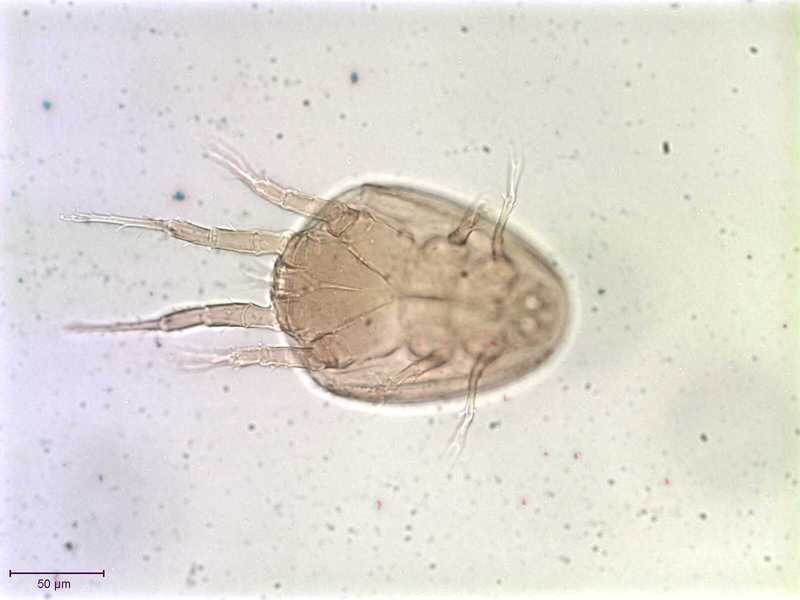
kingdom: Animalia
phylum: Arthropoda
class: Arachnida
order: Sarcoptiformes
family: Histiostomatidae
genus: Capronomoia
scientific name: Capronomoia sphaerocerae
